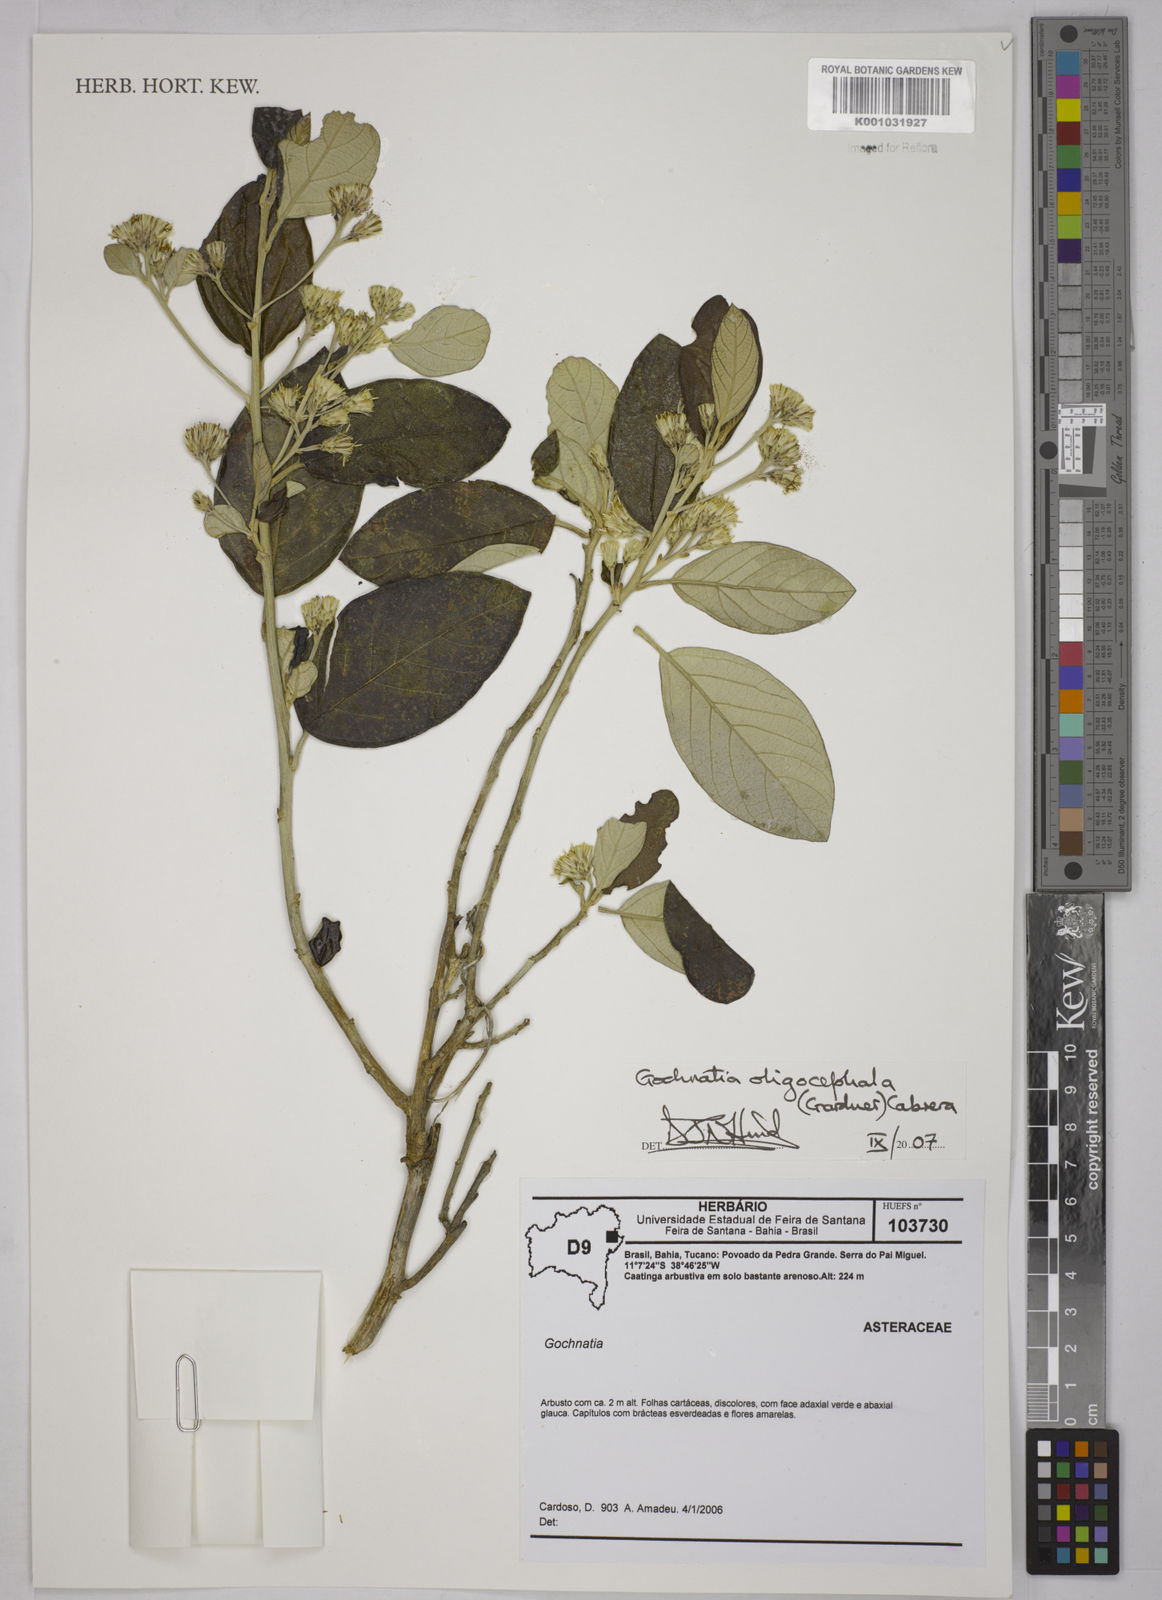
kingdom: Plantae
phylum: Tracheophyta
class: Magnoliopsida
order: Asterales
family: Asteraceae
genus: Moquiniastrum
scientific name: Moquiniastrum oligocephalum
